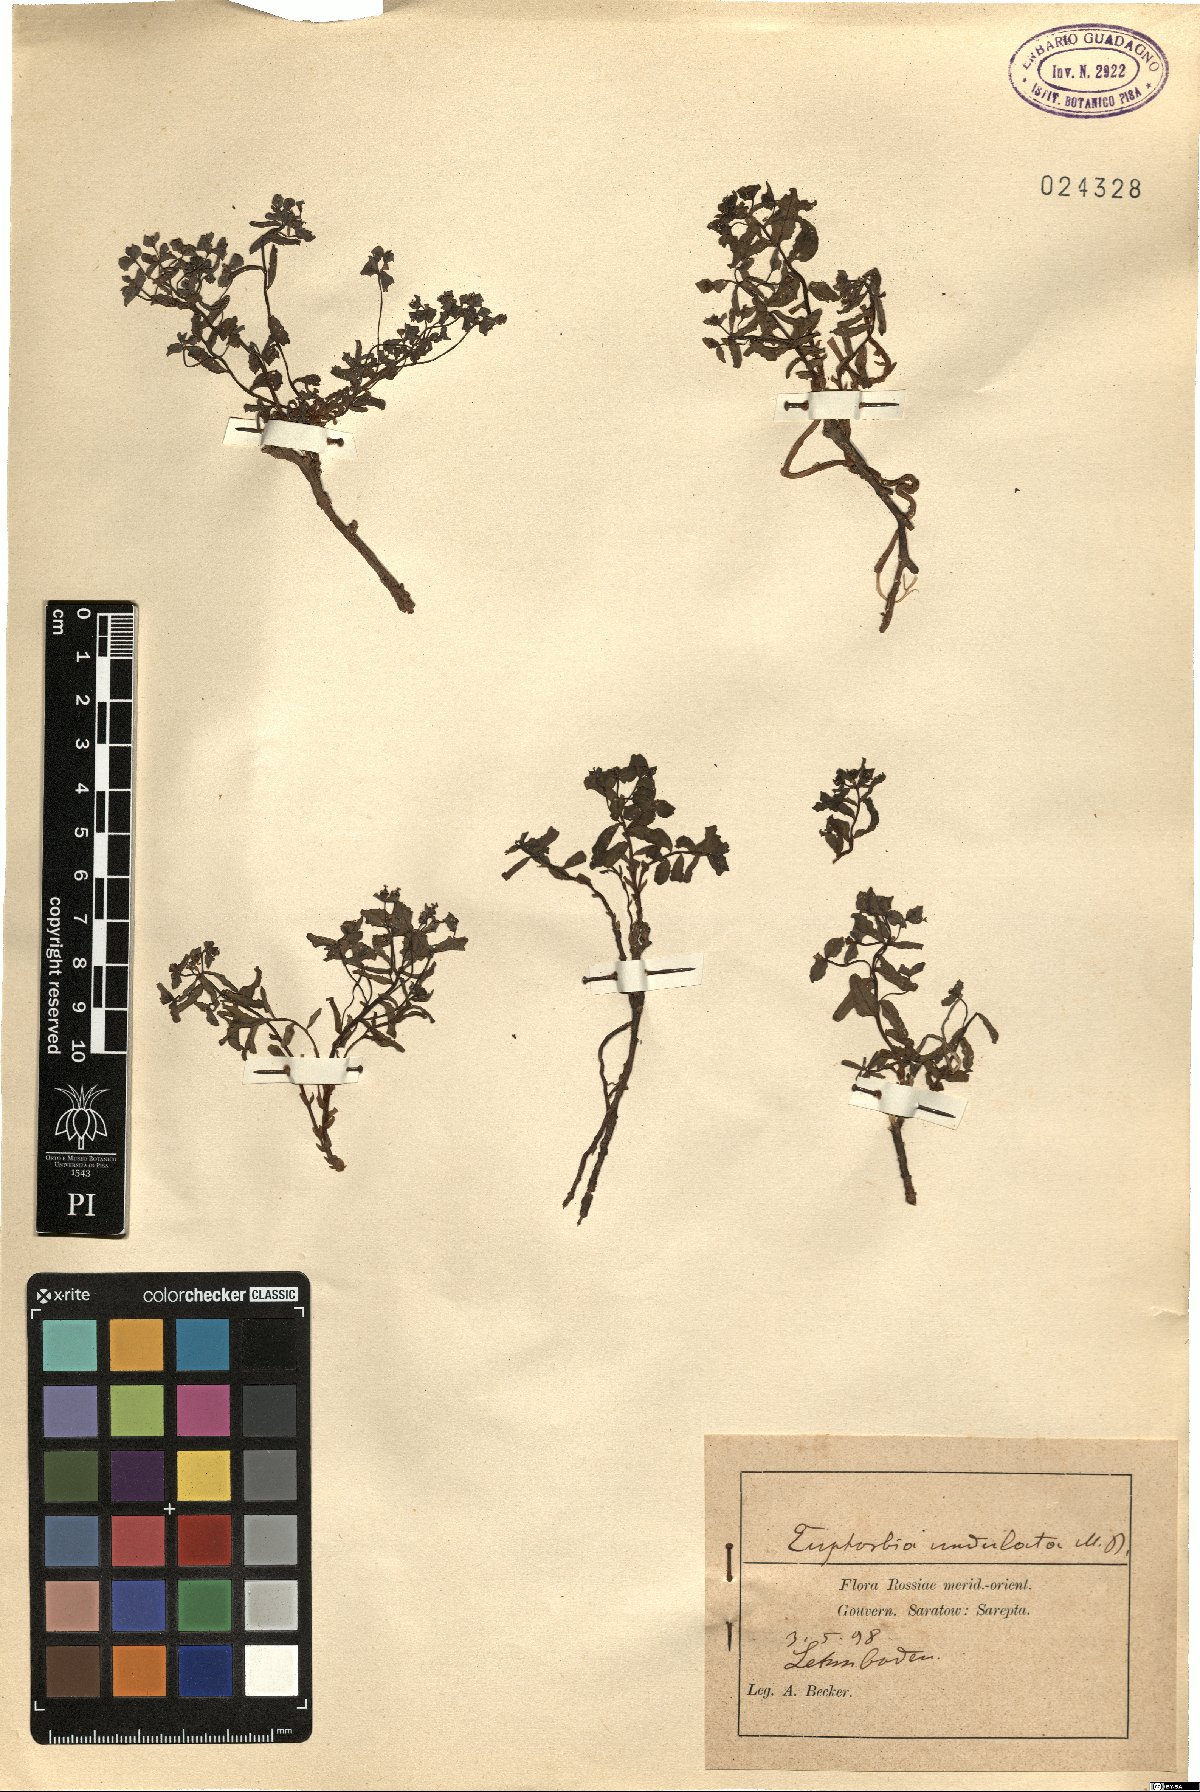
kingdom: Plantae
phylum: Tracheophyta
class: Magnoliopsida
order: Malpighiales
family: Euphorbiaceae
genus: Euphorbia
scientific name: Euphorbia undulata
